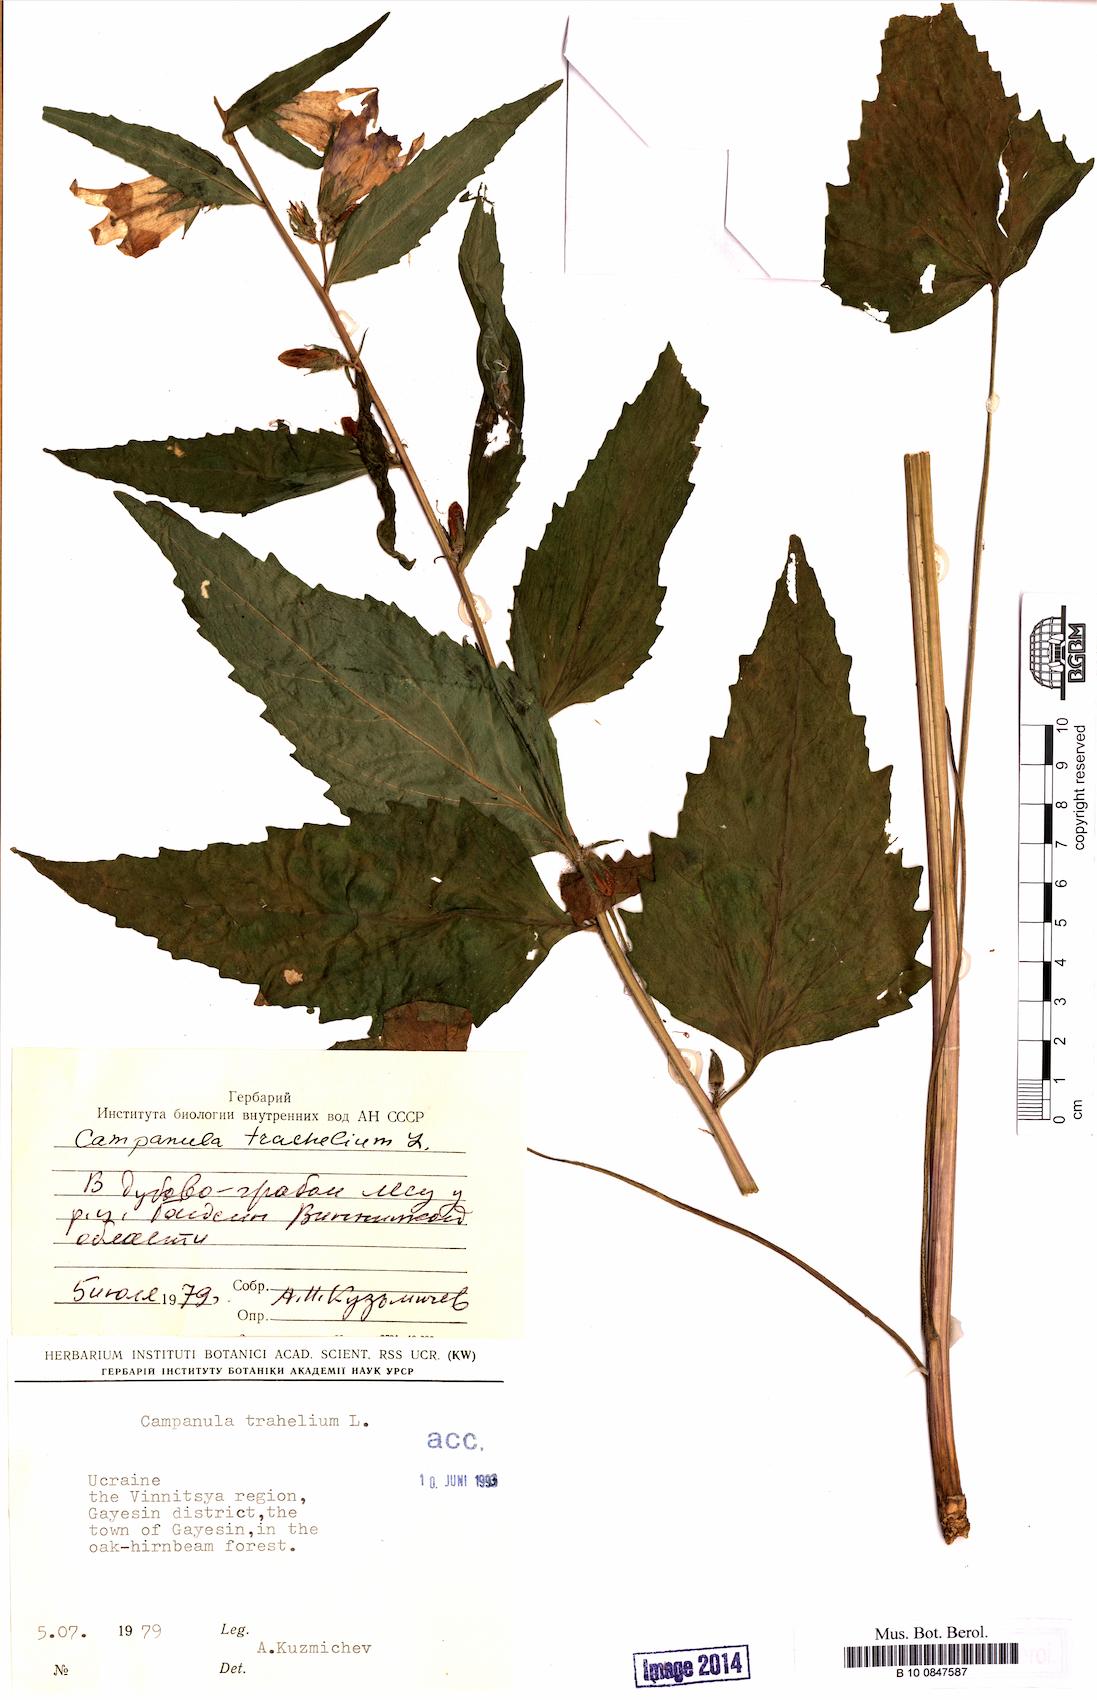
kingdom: Plantae
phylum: Tracheophyta
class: Magnoliopsida
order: Asterales
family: Campanulaceae
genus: Campanula
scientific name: Campanula trachelium
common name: Nettle-leaved bellflower
